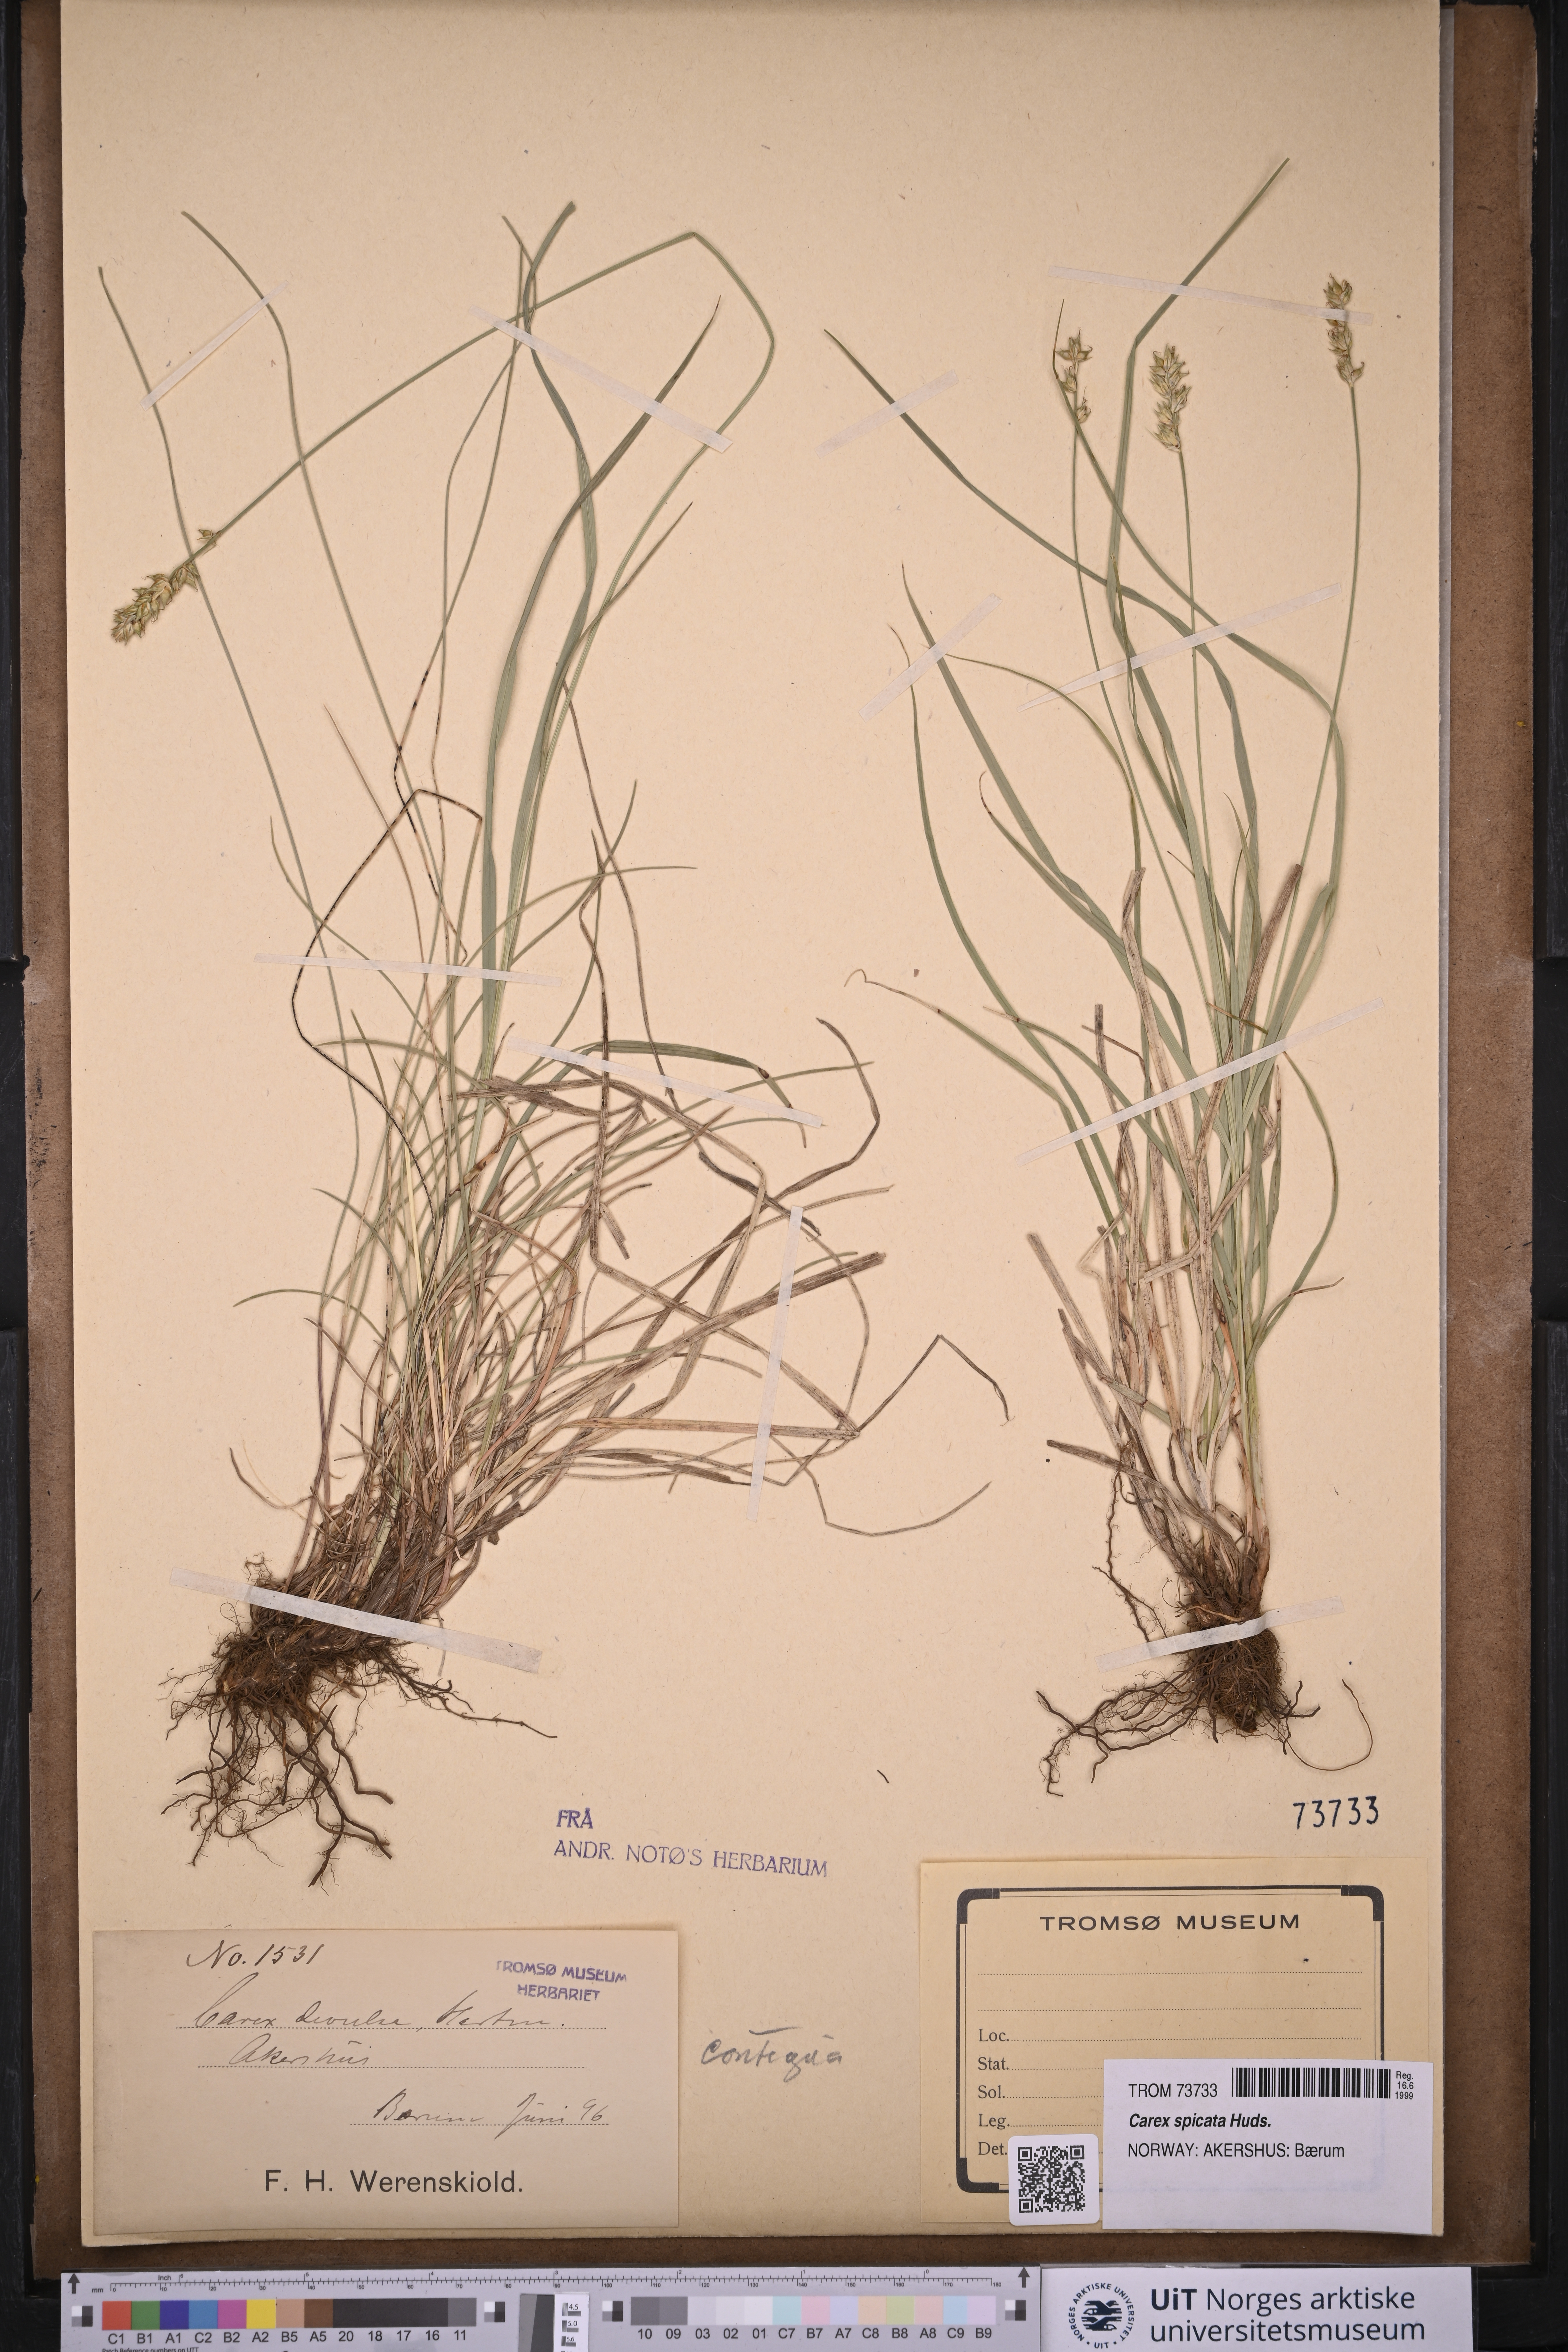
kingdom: Plantae
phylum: Tracheophyta
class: Liliopsida
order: Poales
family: Cyperaceae
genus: Carex
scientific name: Carex spicata
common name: Spiked sedge
